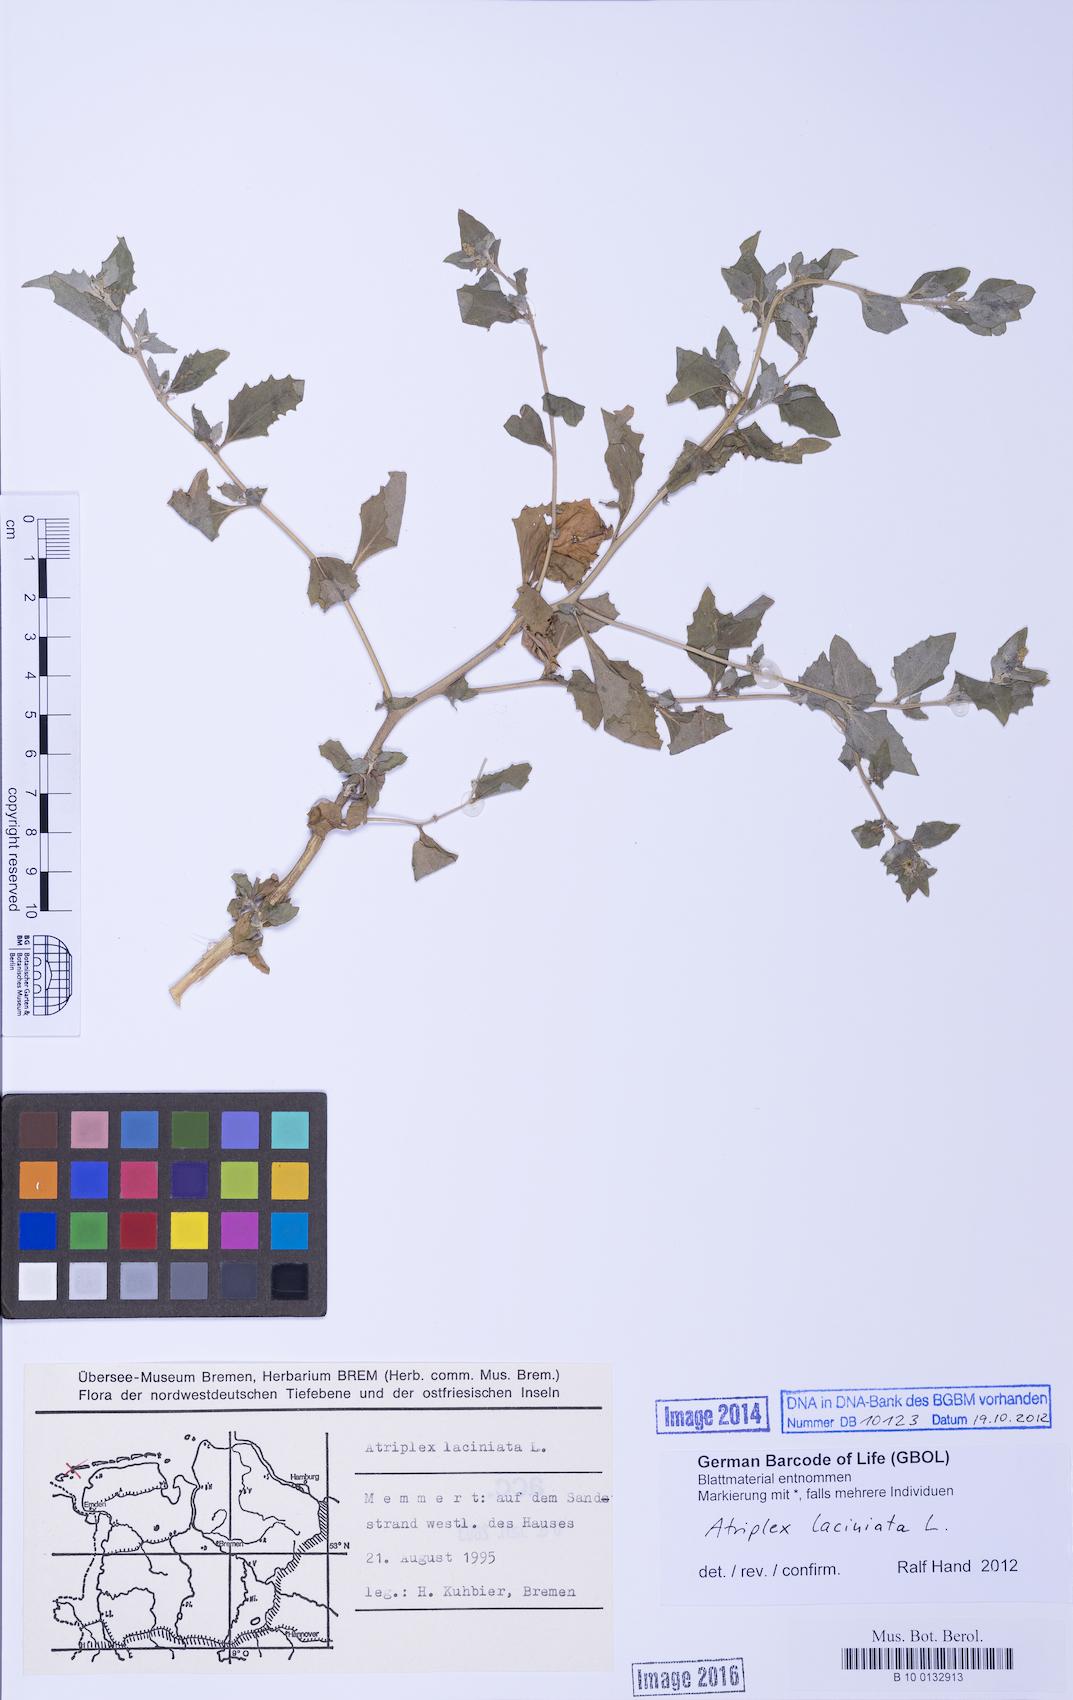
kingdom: Plantae
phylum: Tracheophyta
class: Magnoliopsida
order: Caryophyllales
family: Amaranthaceae
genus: Atriplex
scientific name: Atriplex laciniata
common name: Frosted orache
